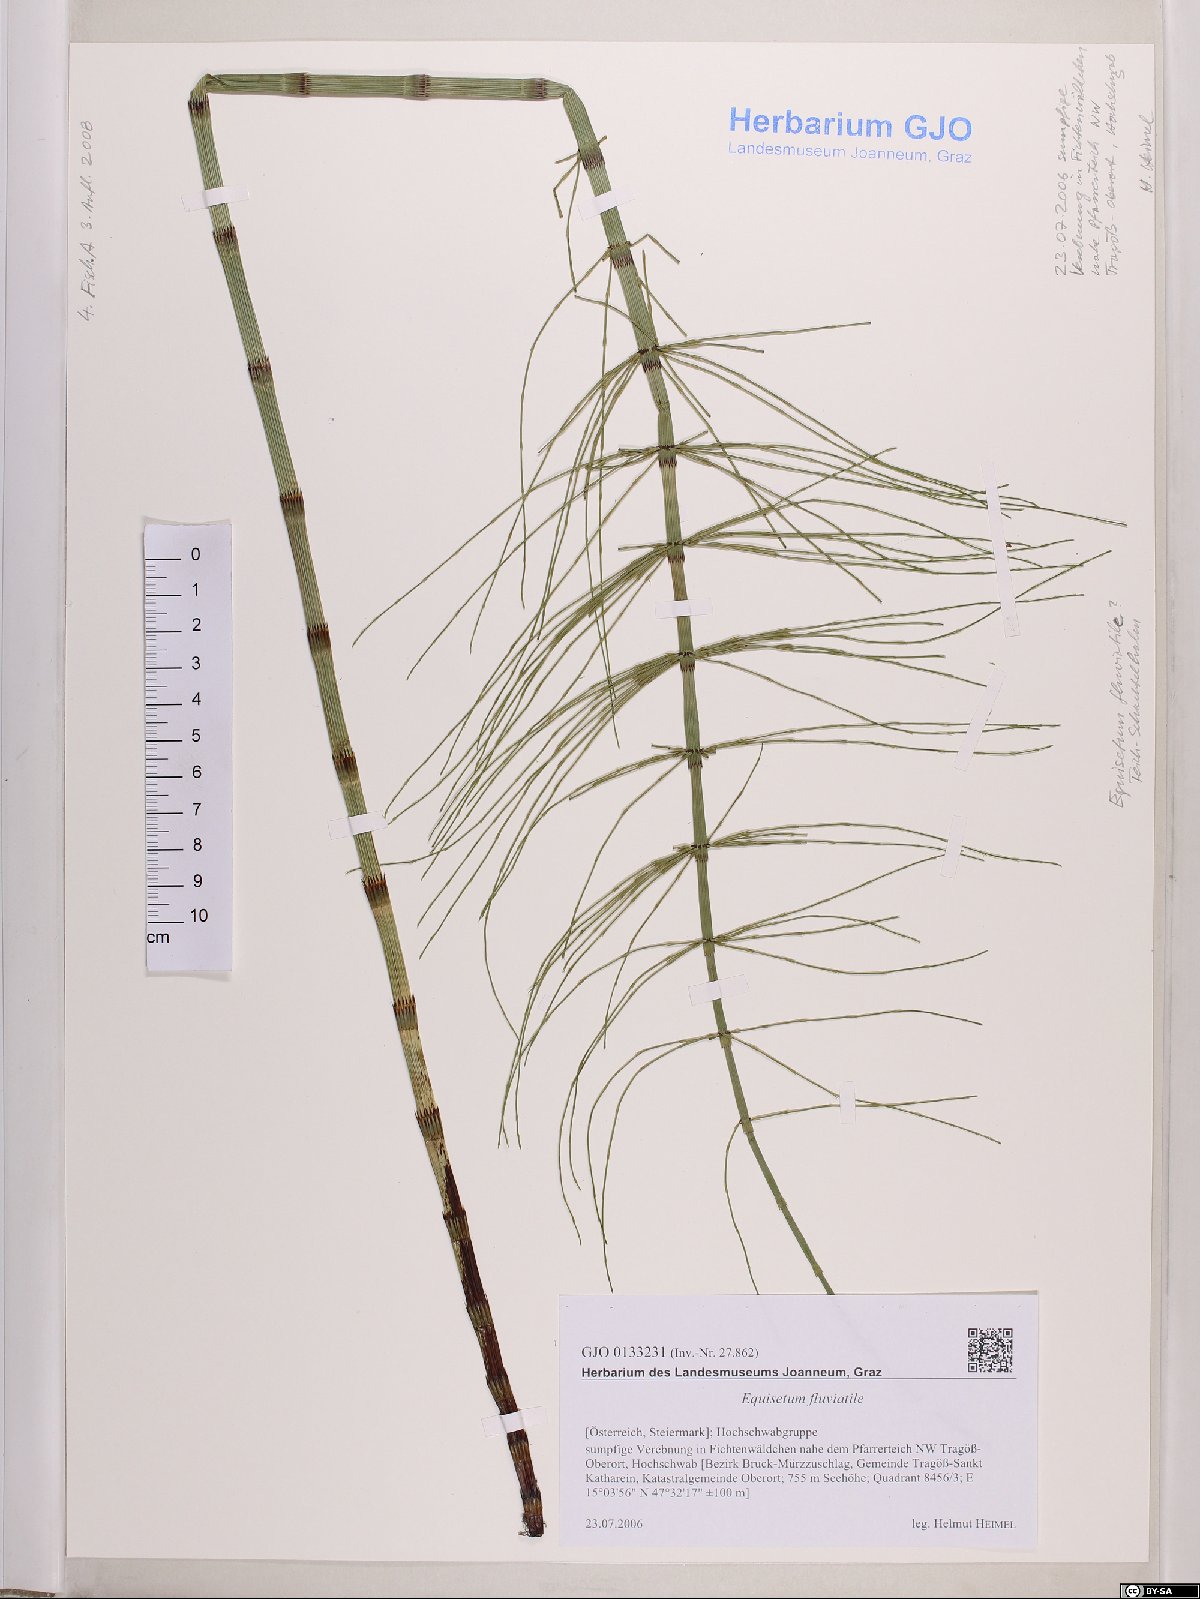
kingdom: Plantae
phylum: Tracheophyta
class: Polypodiopsida
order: Equisetales
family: Equisetaceae
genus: Equisetum
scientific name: Equisetum fluviatile
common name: Water horsetail
